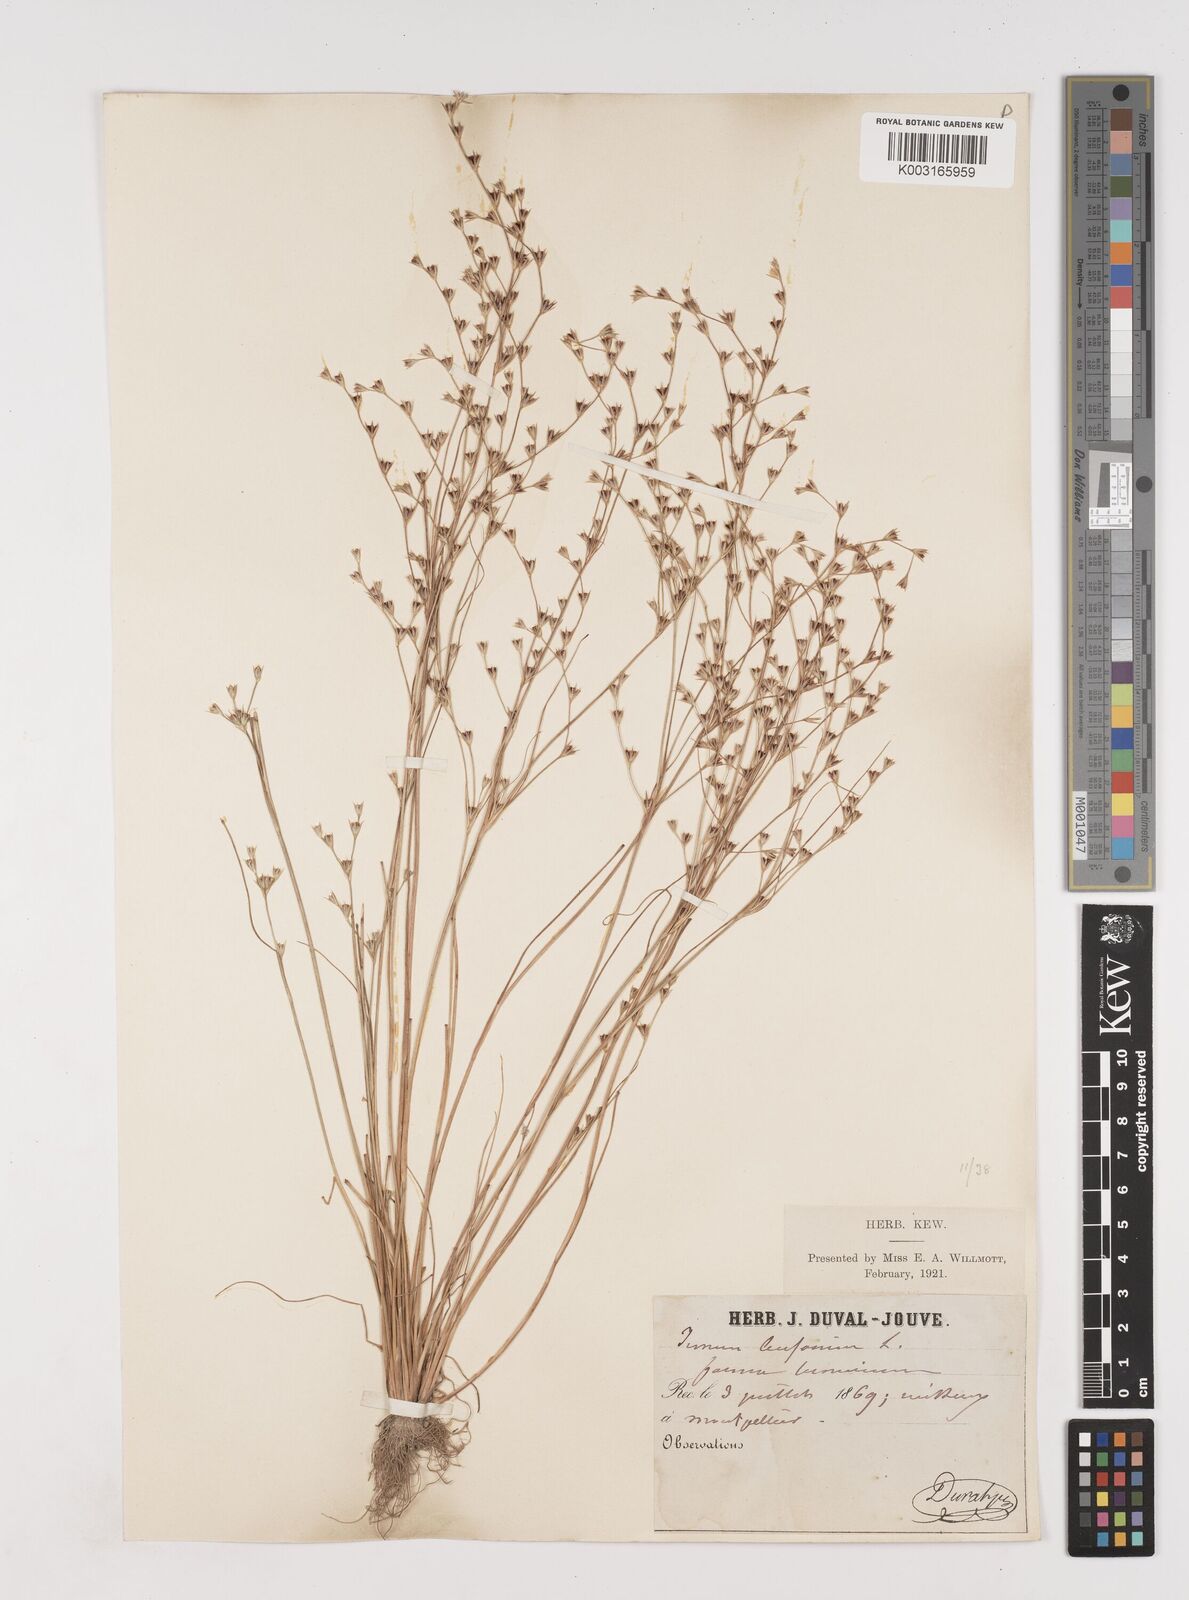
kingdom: Plantae
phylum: Tracheophyta
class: Liliopsida
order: Poales
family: Juncaceae
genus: Juncus
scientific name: Juncus bufonius
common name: Toad rush
